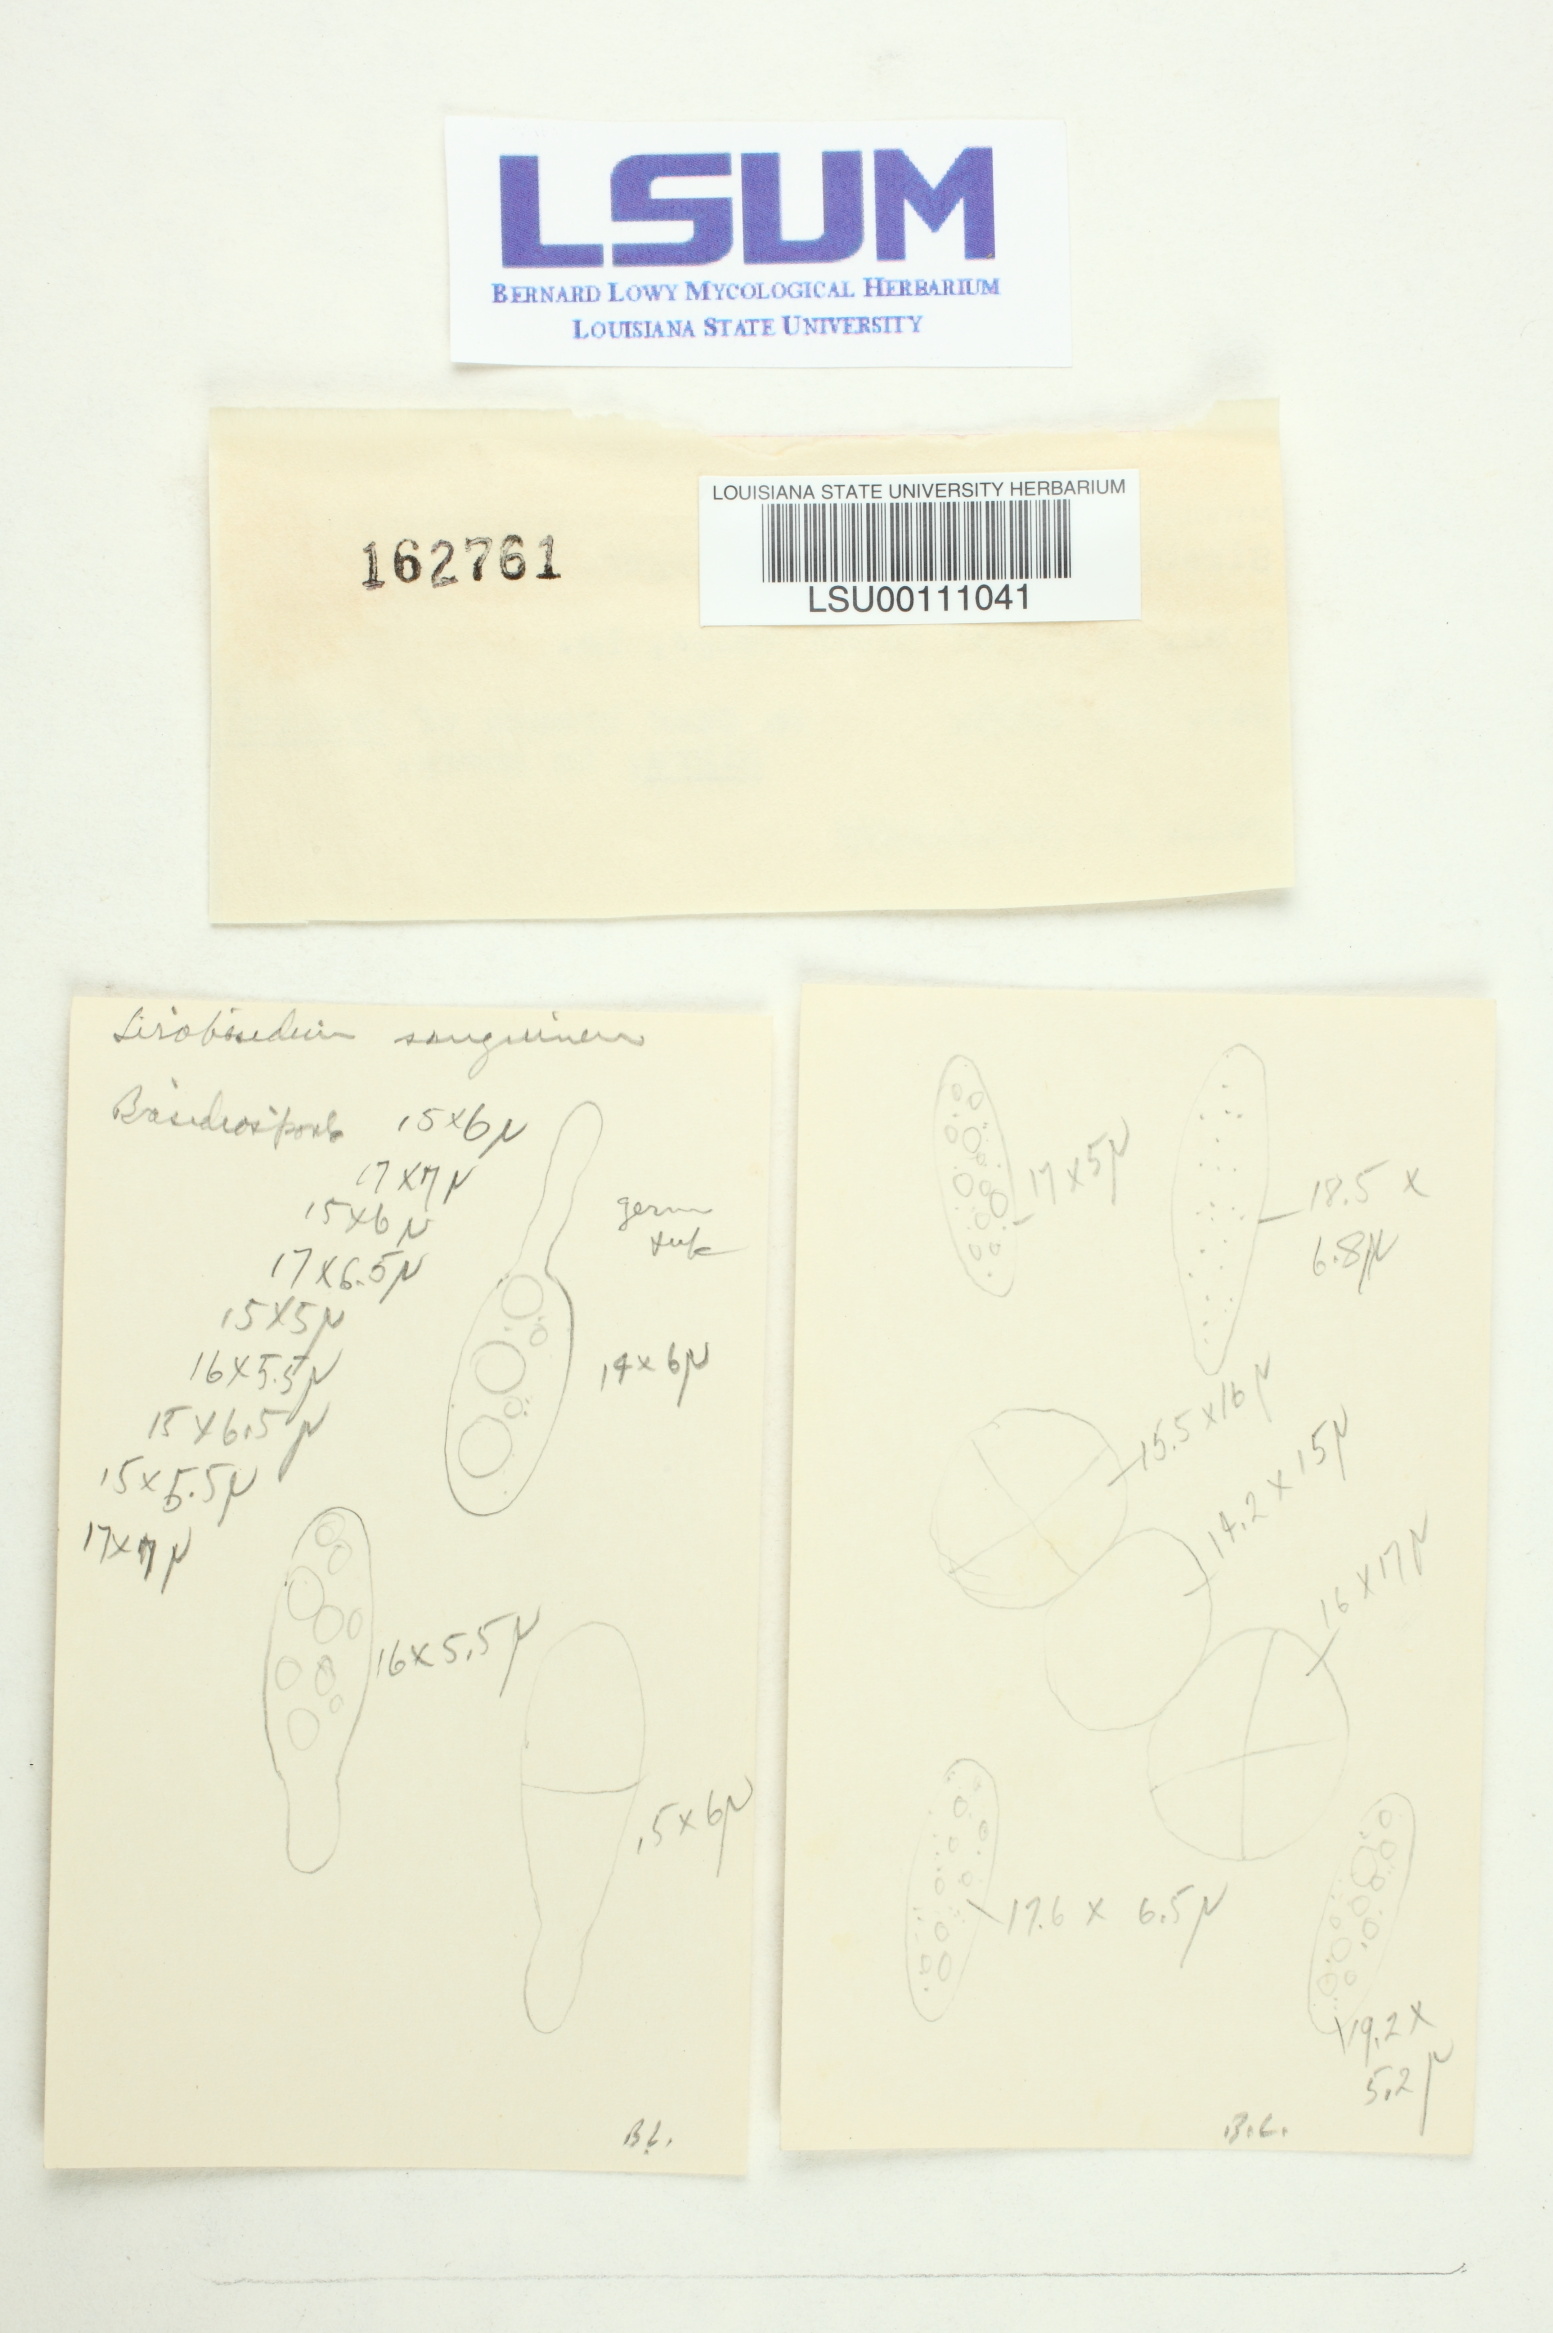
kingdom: Fungi
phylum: Basidiomycota
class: Tremellomycetes
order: Tremellales
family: Sirobasidiaceae
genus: Sirobasidium
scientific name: Sirobasidium sanguineum
